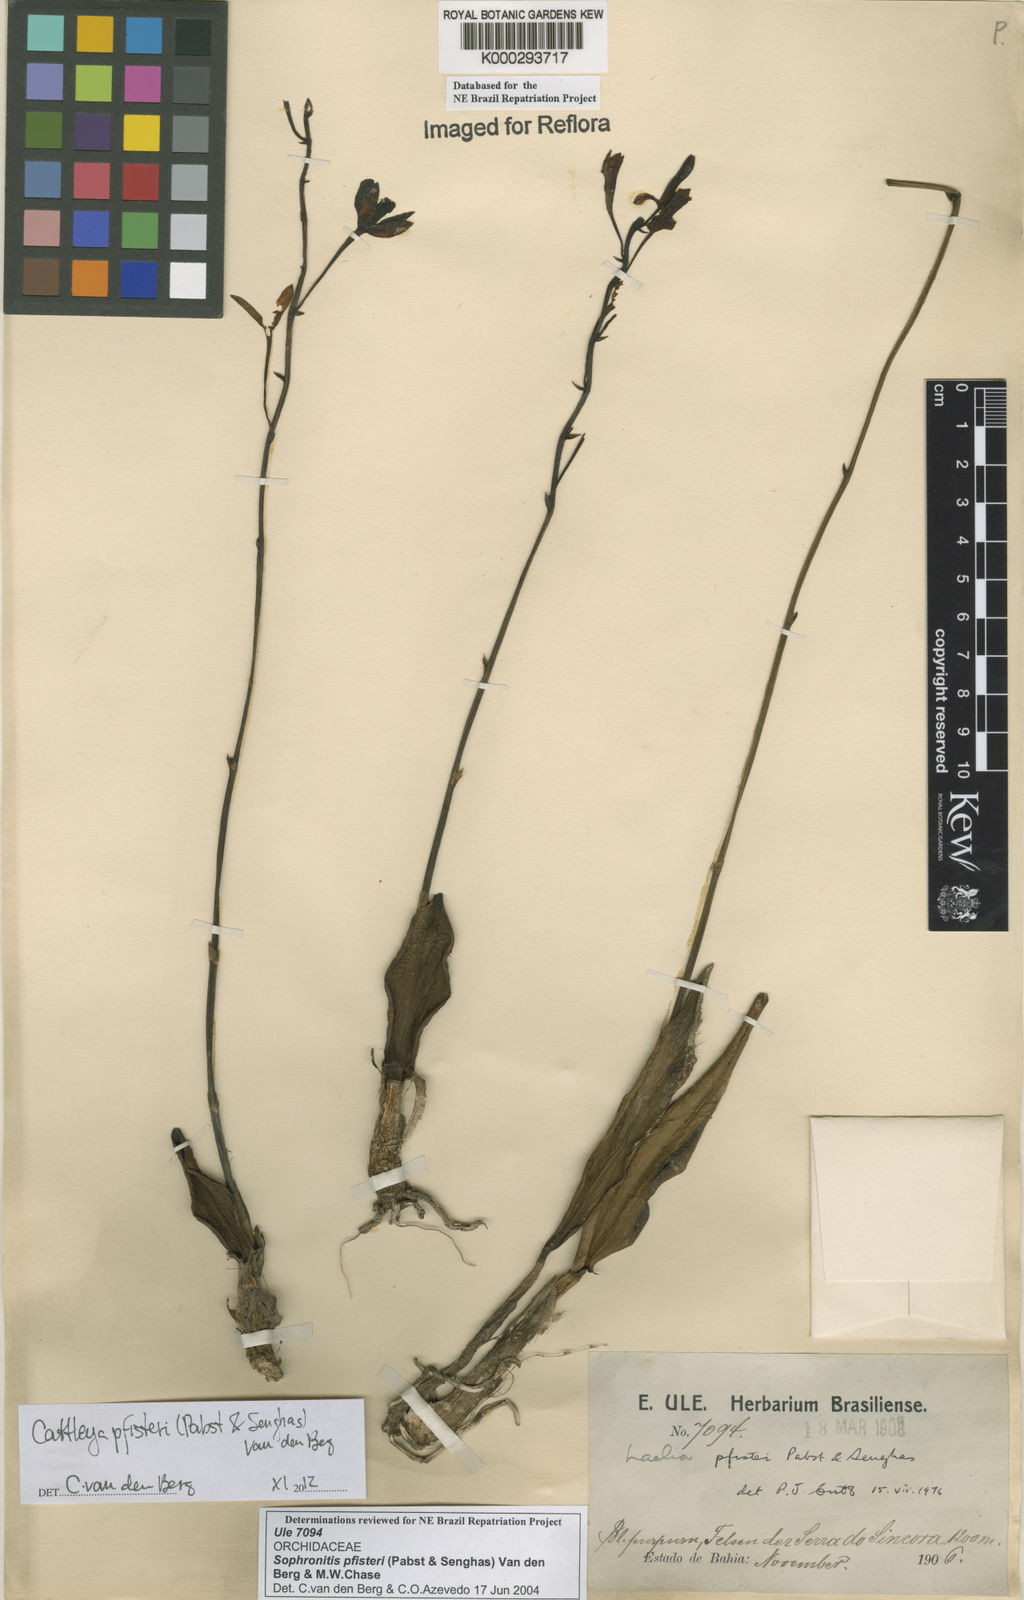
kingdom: Plantae
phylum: Tracheophyta
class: Liliopsida
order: Asparagales
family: Orchidaceae
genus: Cattleya
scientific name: Cattleya pfisteri
